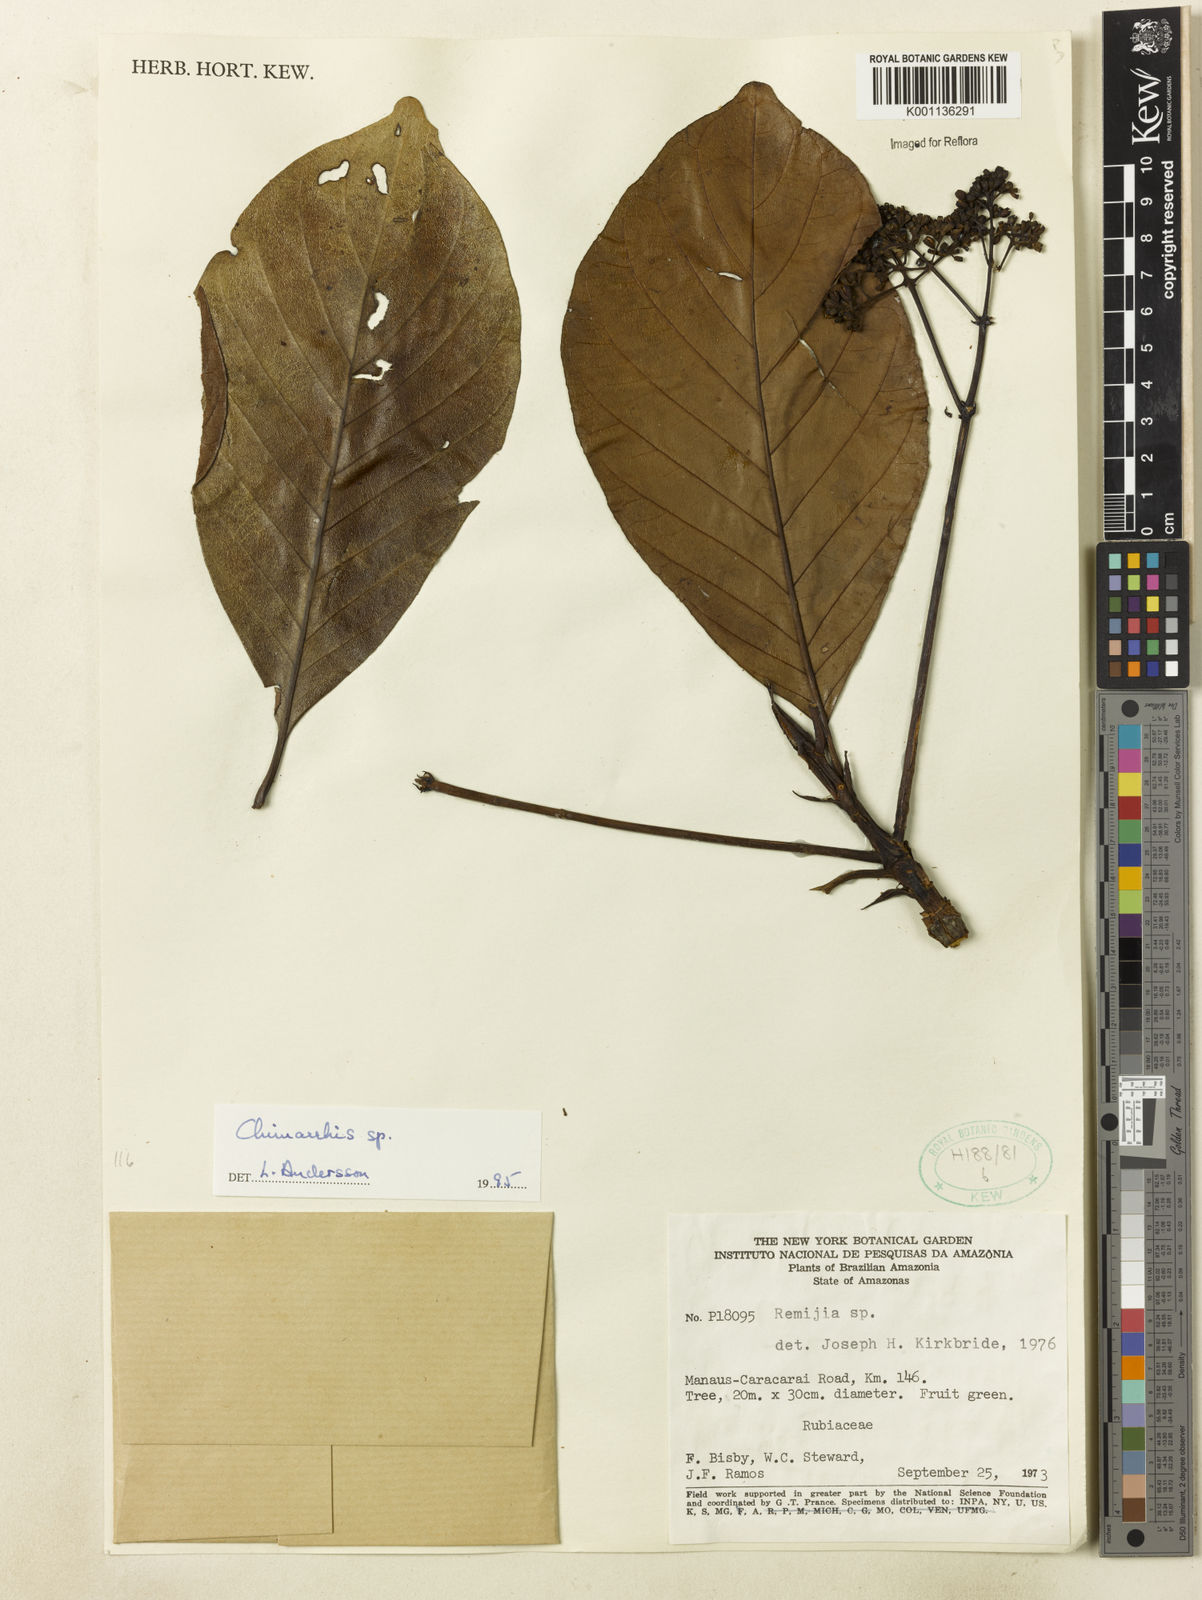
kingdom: Plantae
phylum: Tracheophyta
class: Magnoliopsida
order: Gentianales
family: Rubiaceae
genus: Chimarrhis
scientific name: Chimarrhis
